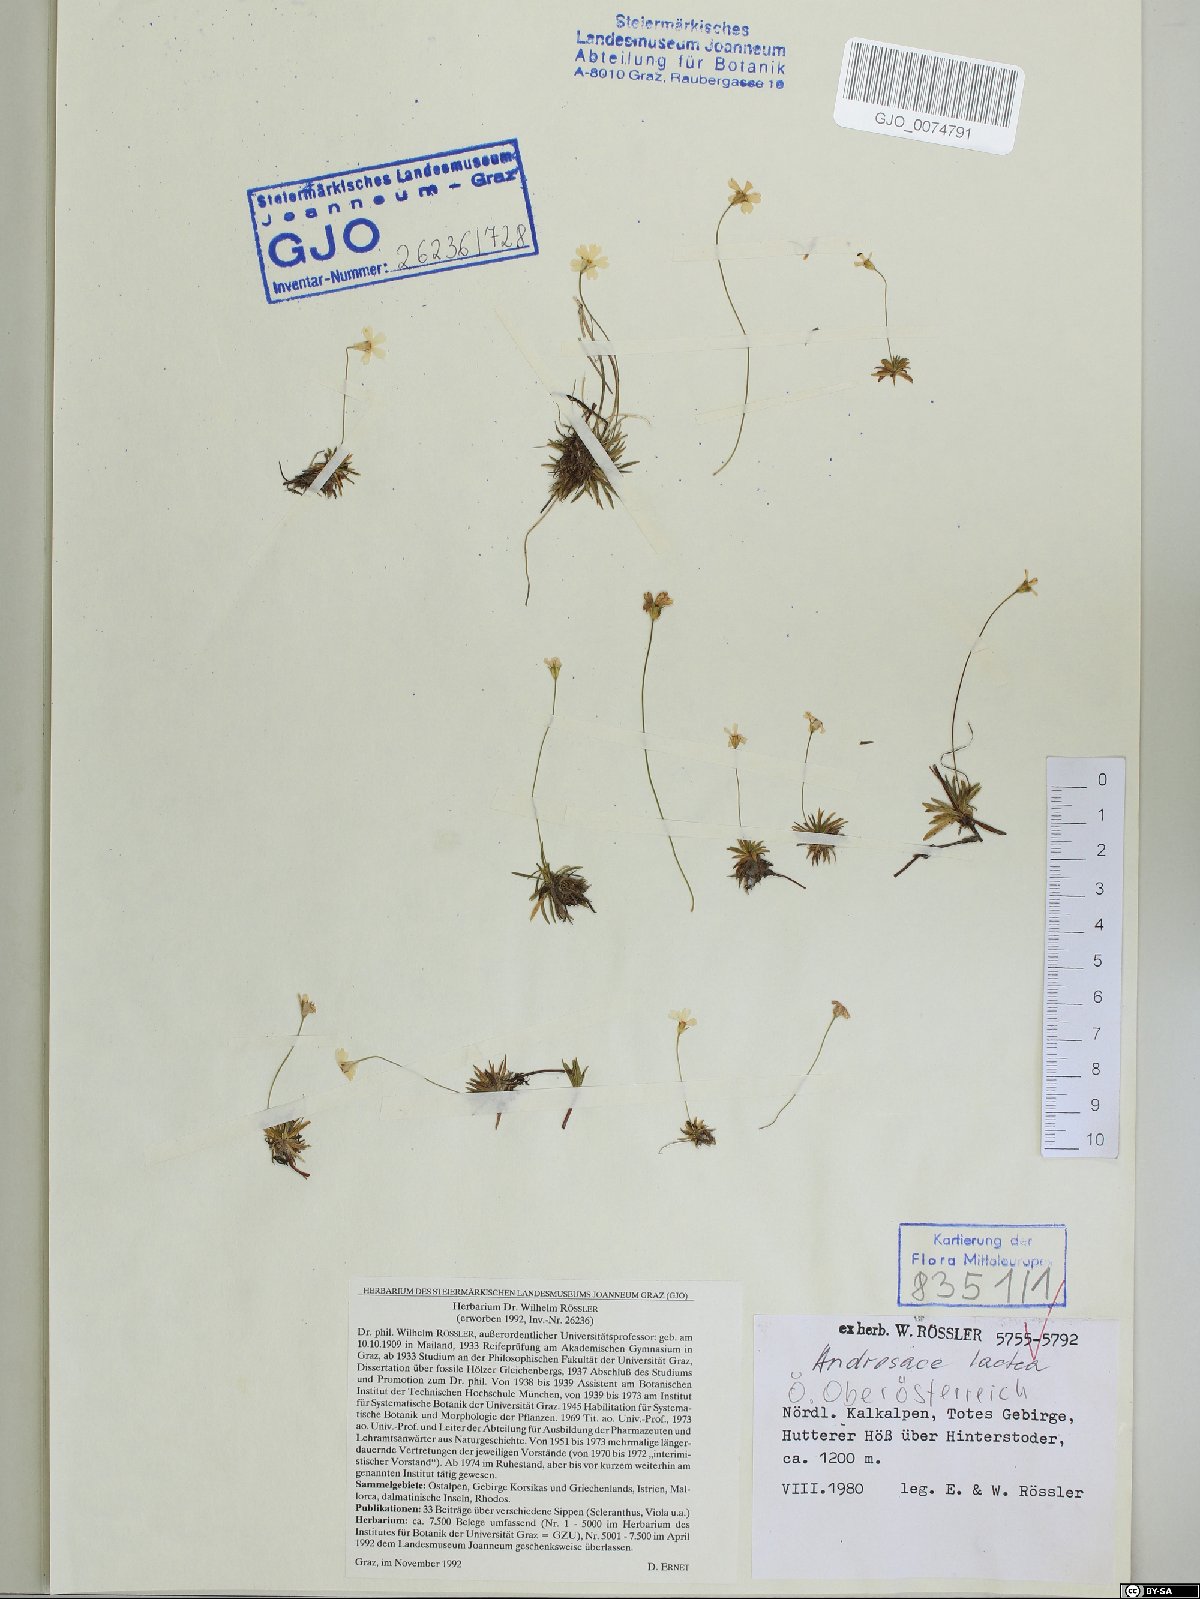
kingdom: Plantae
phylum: Tracheophyta
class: Magnoliopsida
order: Ericales
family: Primulaceae
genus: Androsace
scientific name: Androsace lactea
